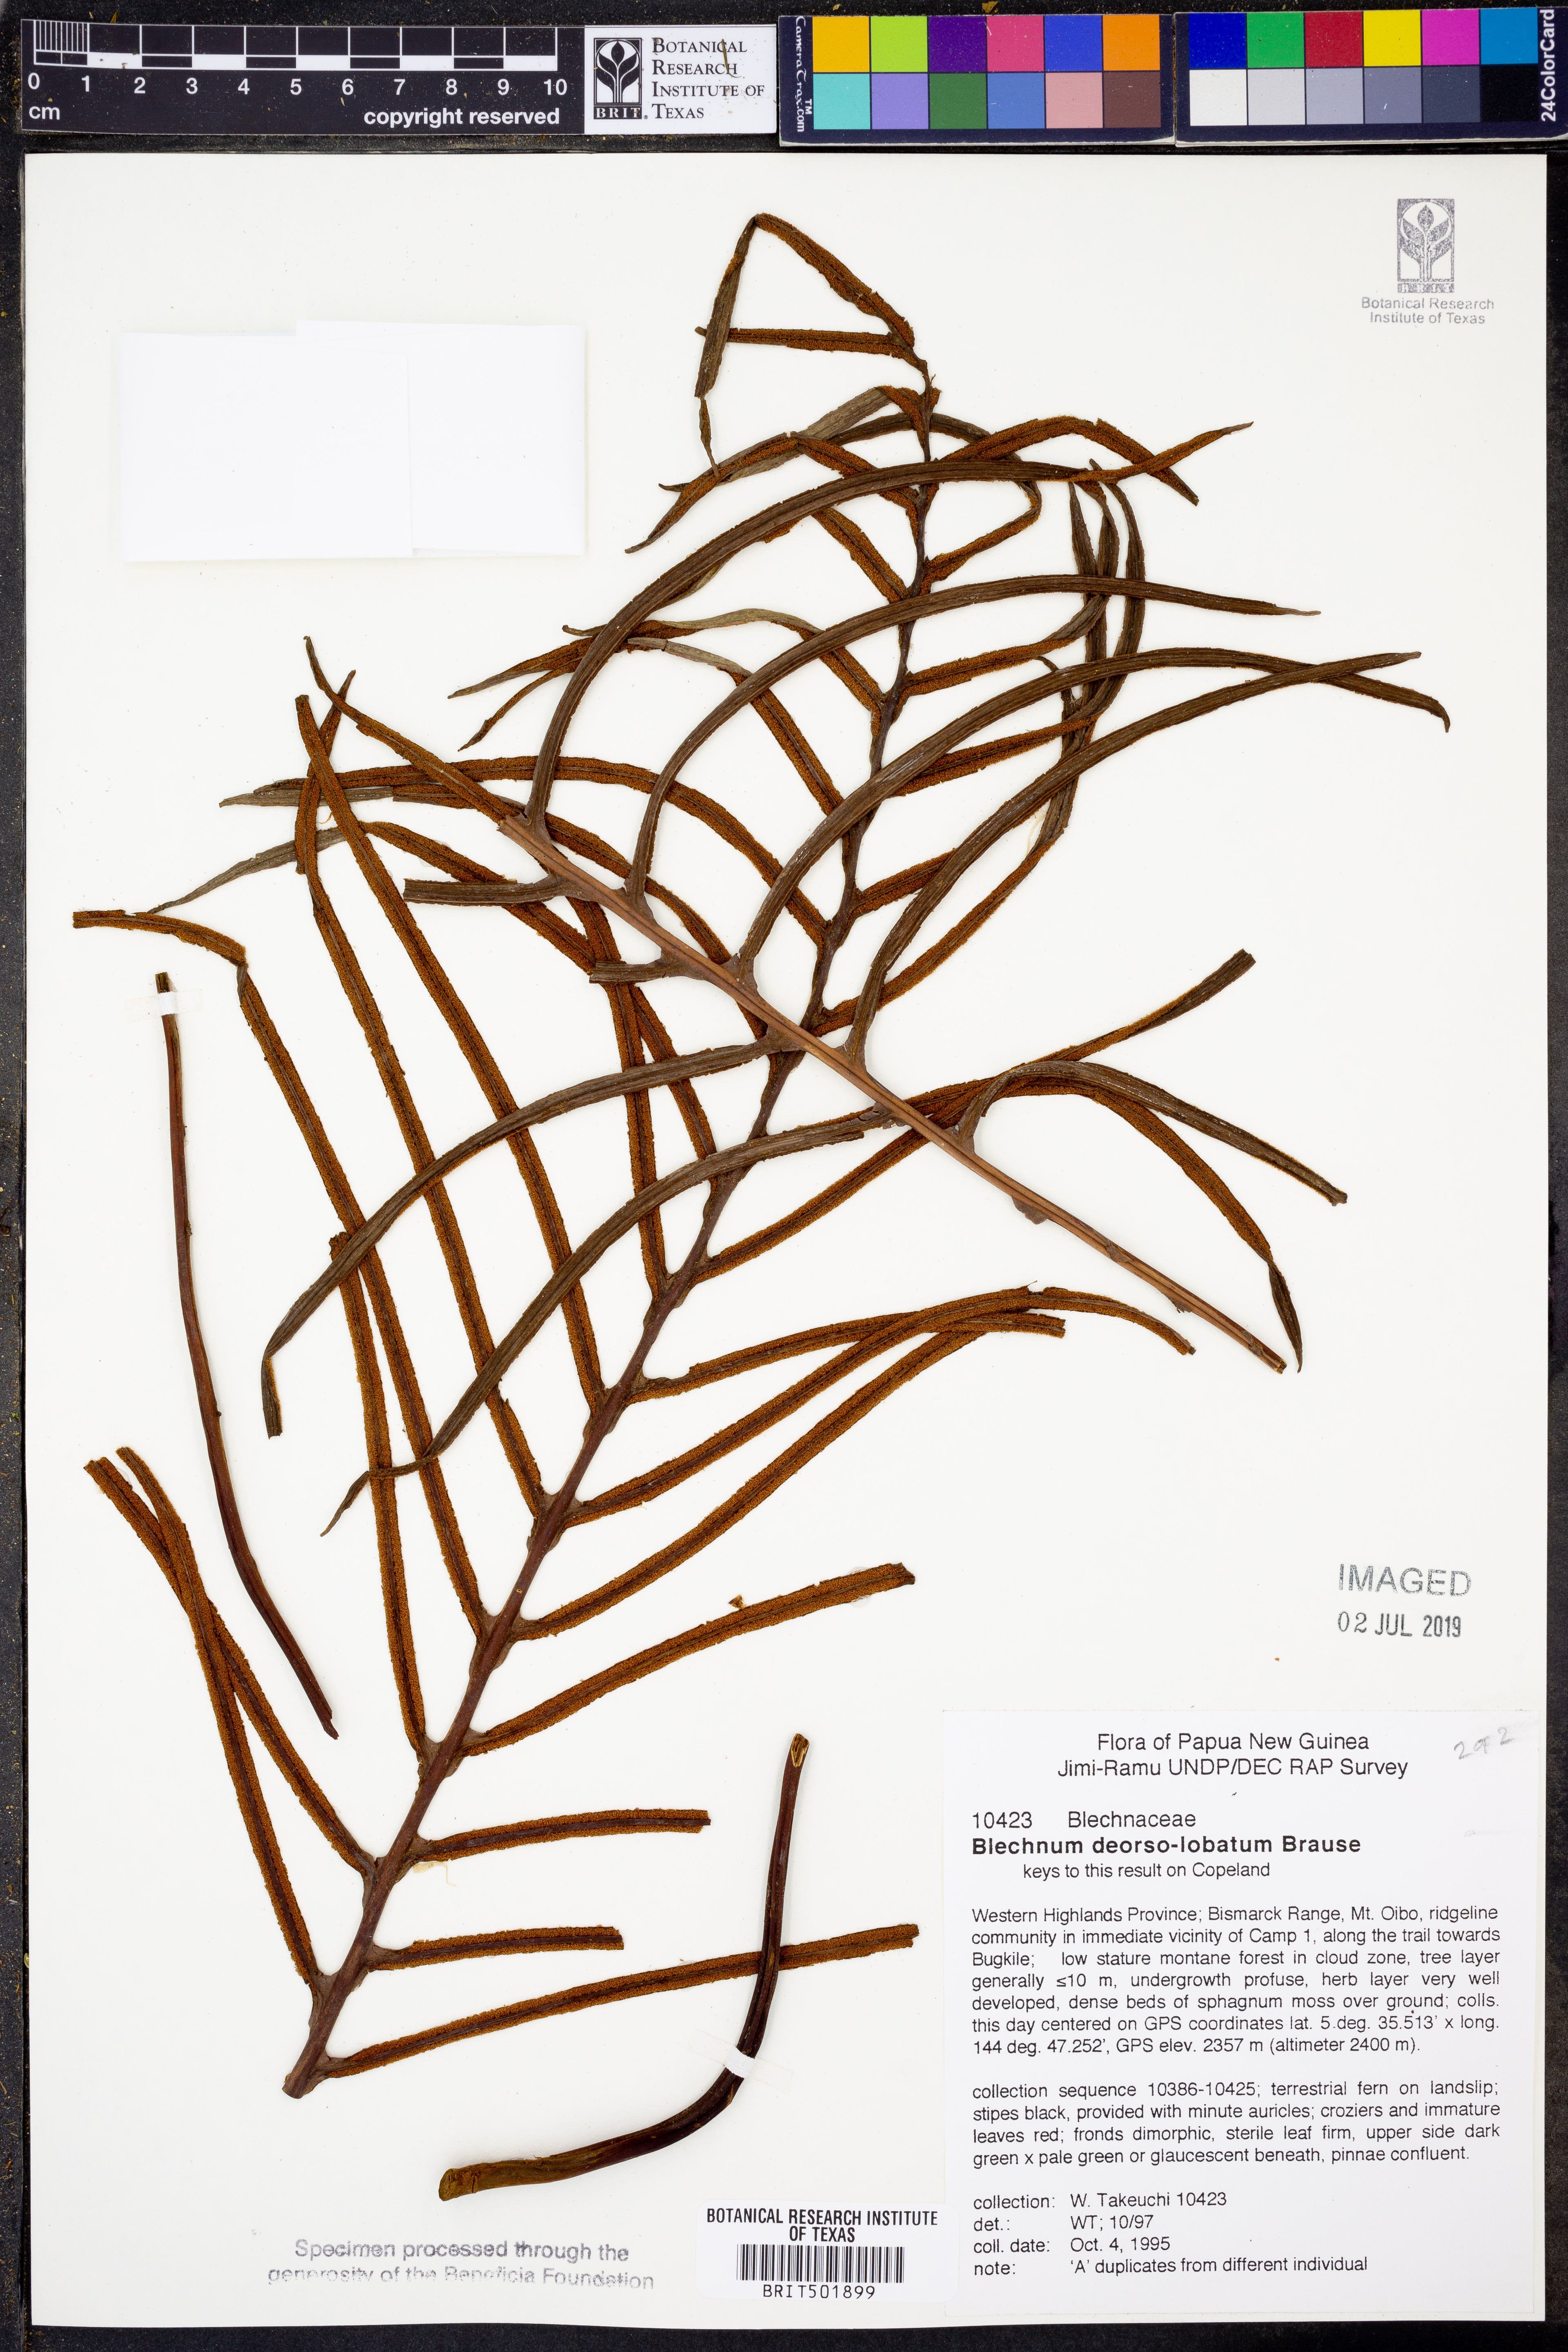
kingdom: Plantae
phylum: Tracheophyta
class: Polypodiopsida
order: Polypodiales
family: Blechnaceae
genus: Austroblechnum
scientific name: Austroblechnum keysseri
